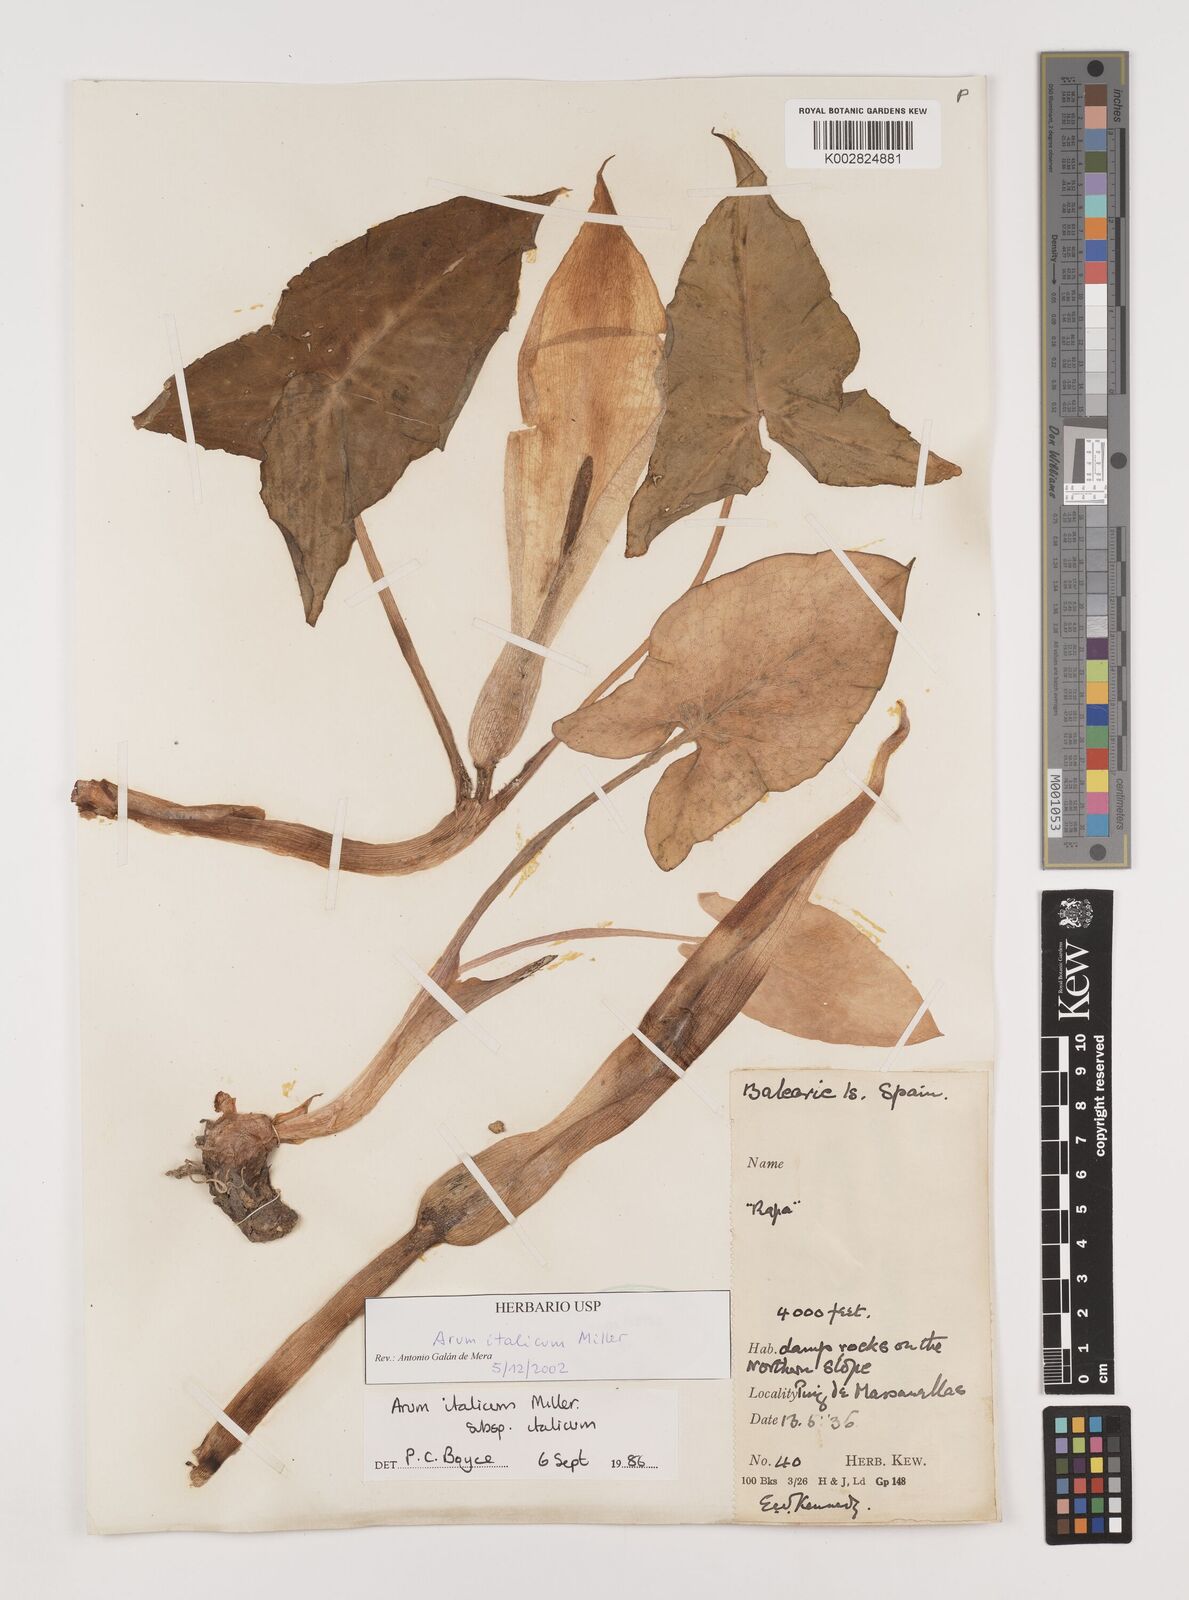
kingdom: Plantae
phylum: Tracheophyta
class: Liliopsida
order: Alismatales
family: Araceae
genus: Arum
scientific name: Arum italicum
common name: Italian lords-and-ladies
